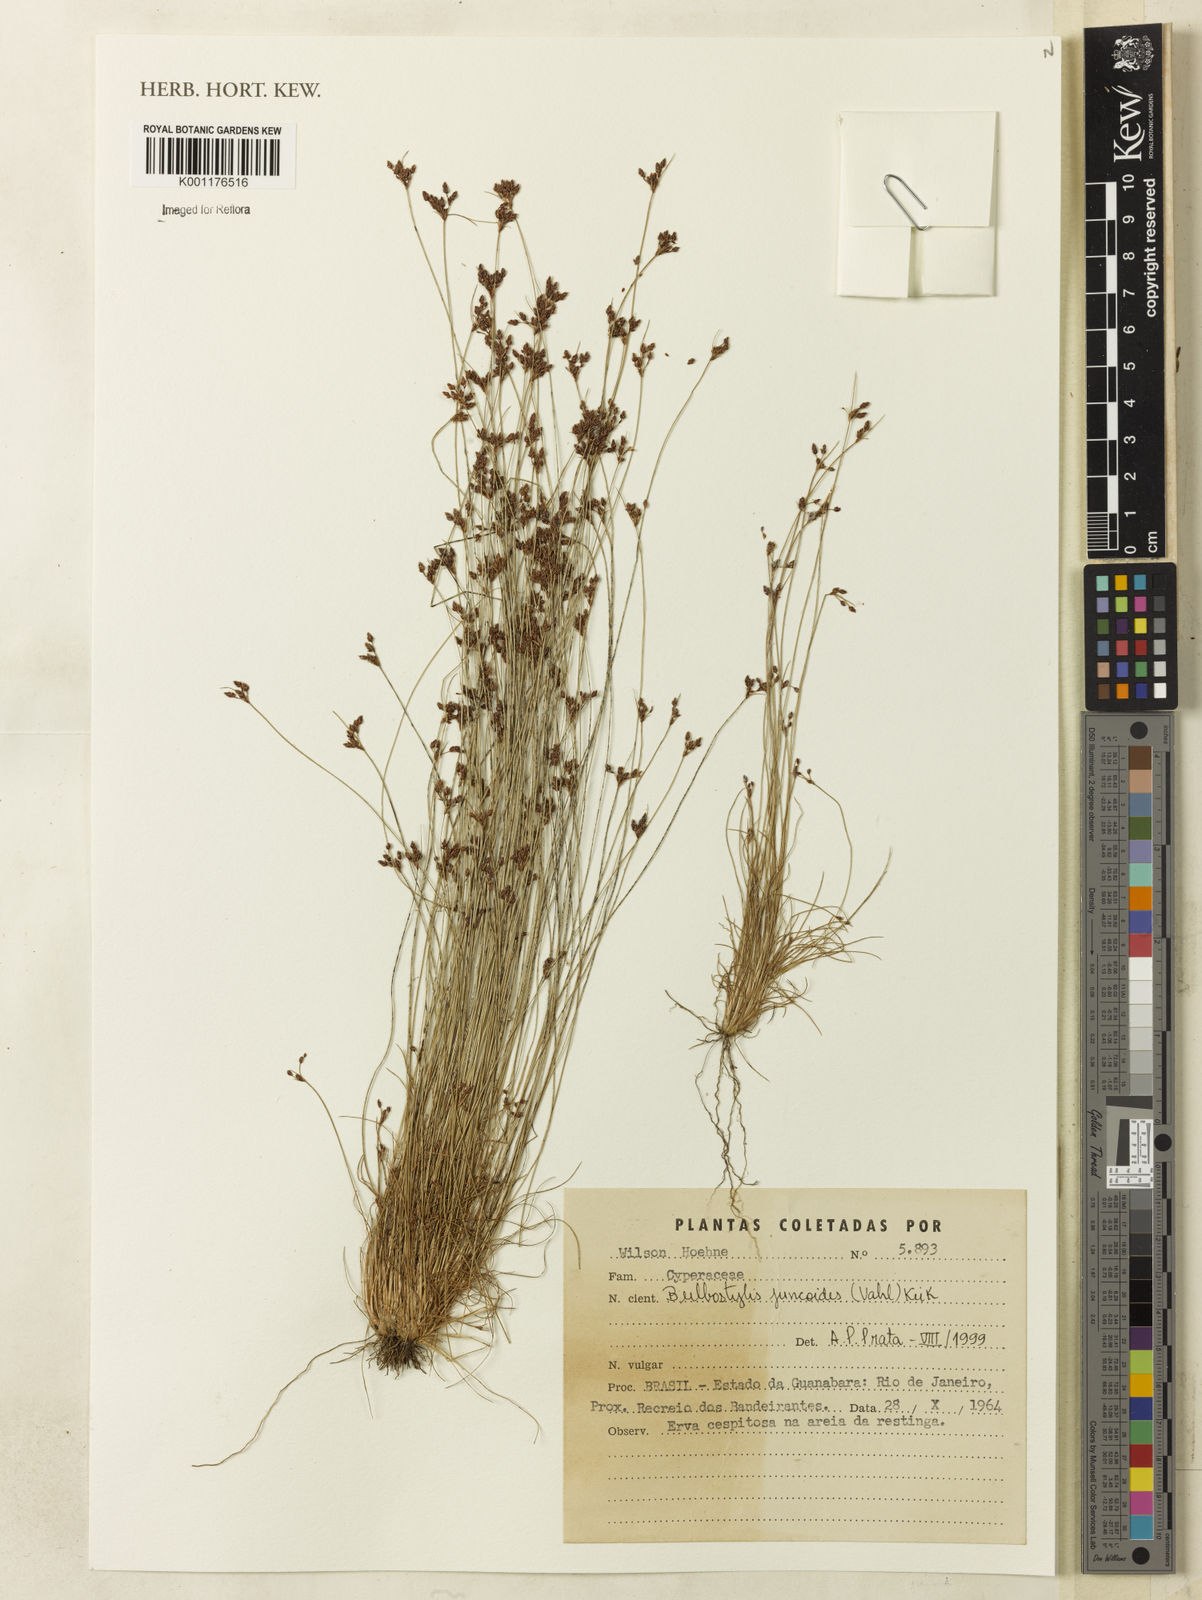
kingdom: Plantae
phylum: Tracheophyta
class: Liliopsida
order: Poales
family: Cyperaceae
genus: Bulbostylis
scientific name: Bulbostylis juncoides
